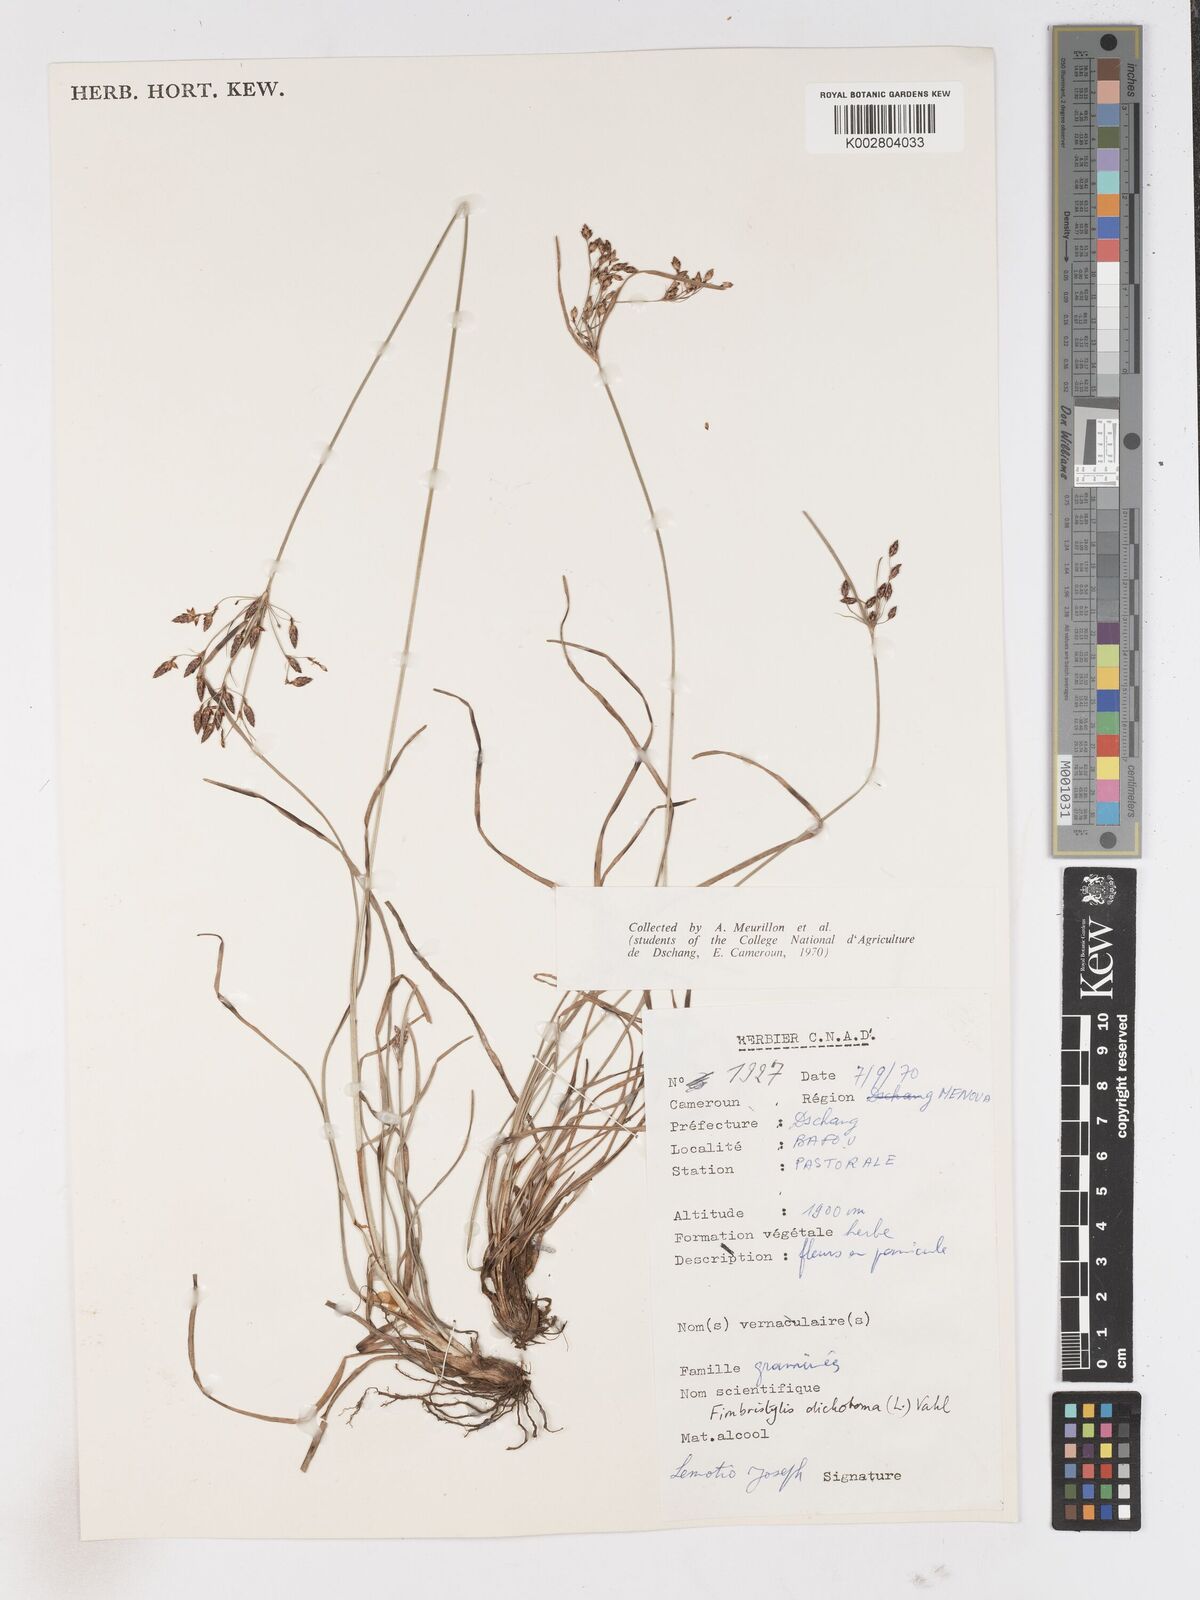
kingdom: Plantae
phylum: Tracheophyta
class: Liliopsida
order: Poales
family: Cyperaceae
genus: Fimbristylis
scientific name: Fimbristylis dichotoma
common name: Forked fimbry
